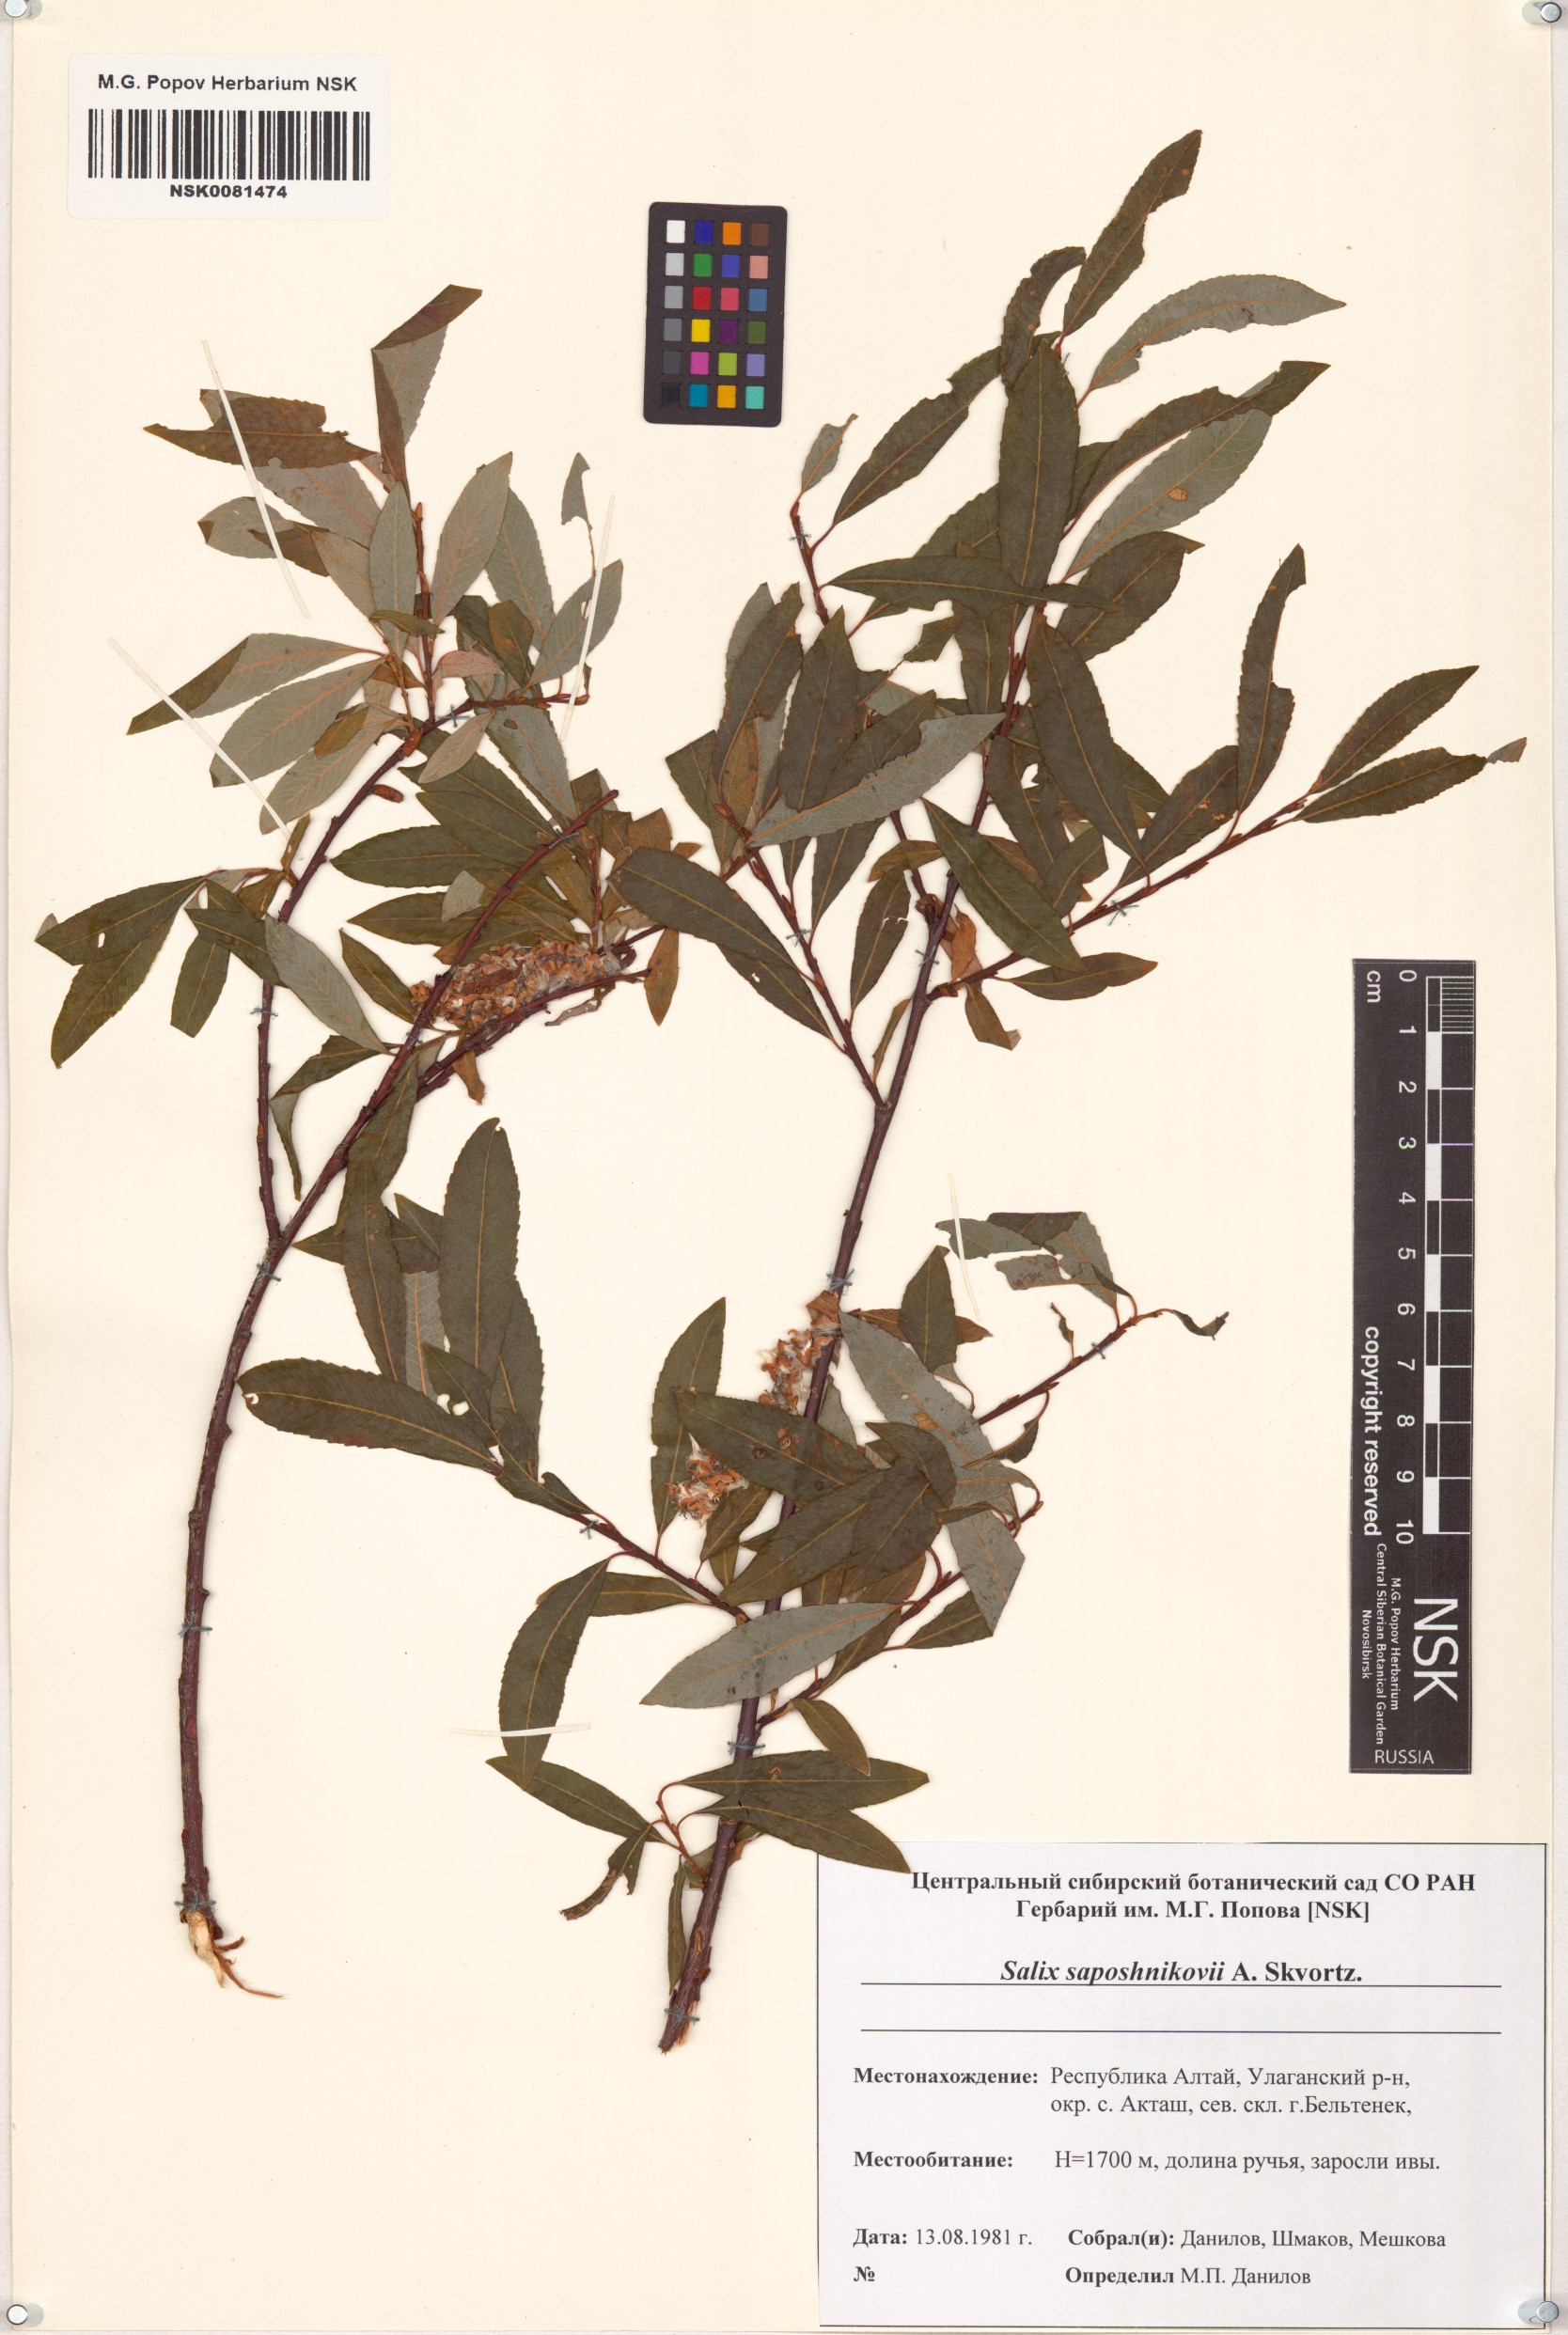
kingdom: Plantae
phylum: Tracheophyta
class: Magnoliopsida
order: Malpighiales
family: Salicaceae
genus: Salix
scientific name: Salix saposhnikovii
